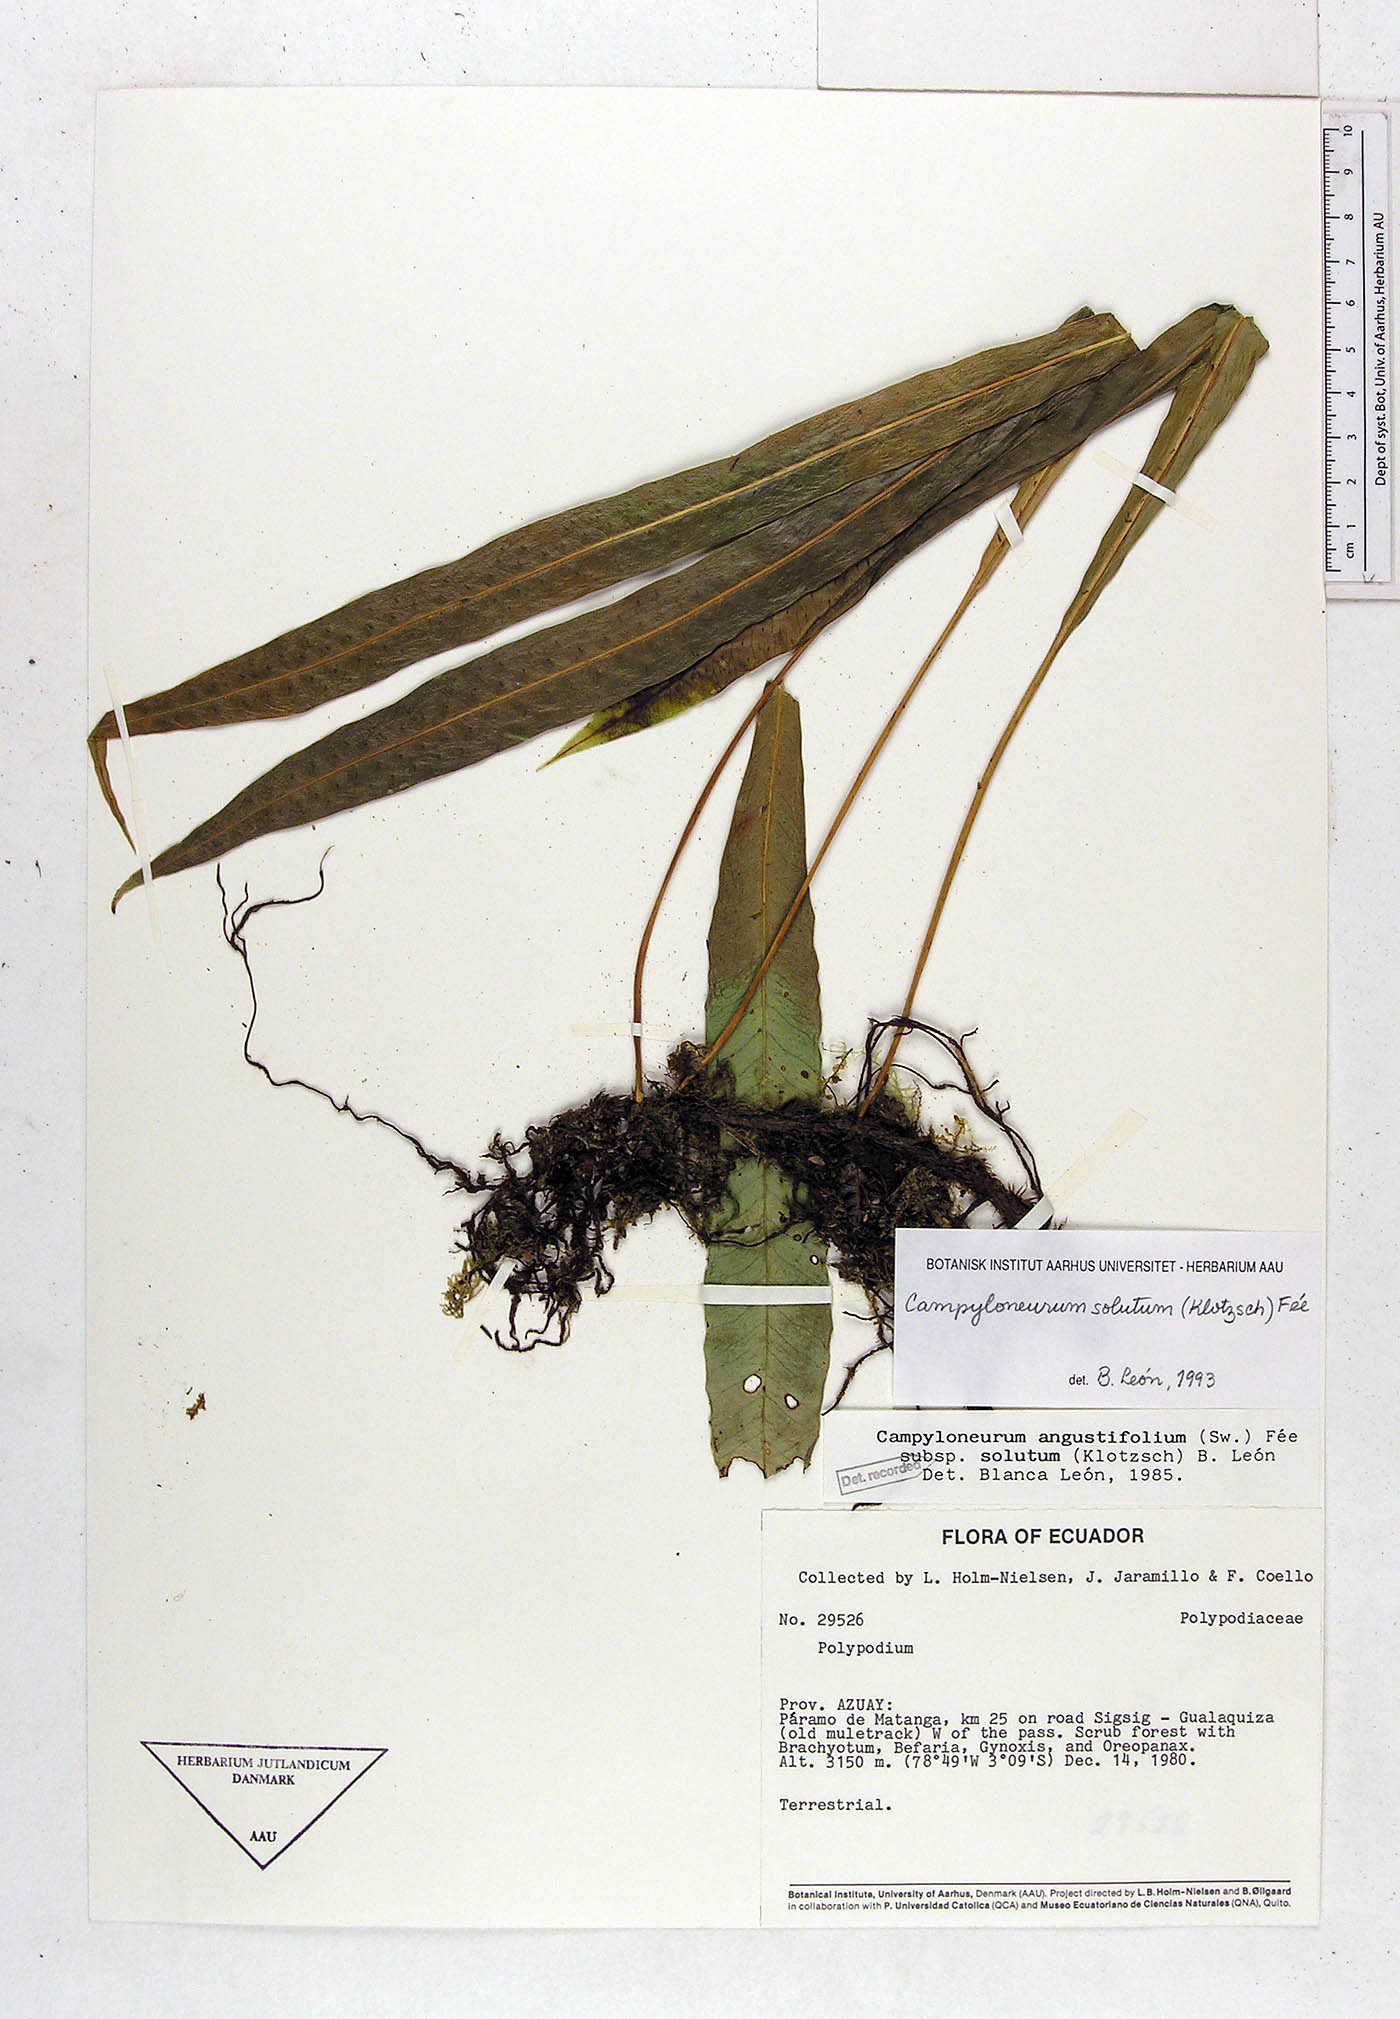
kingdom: Plantae
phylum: Tracheophyta
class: Polypodiopsida
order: Polypodiales
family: Polypodiaceae
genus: Campyloneurum
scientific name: Campyloneurum solutum
